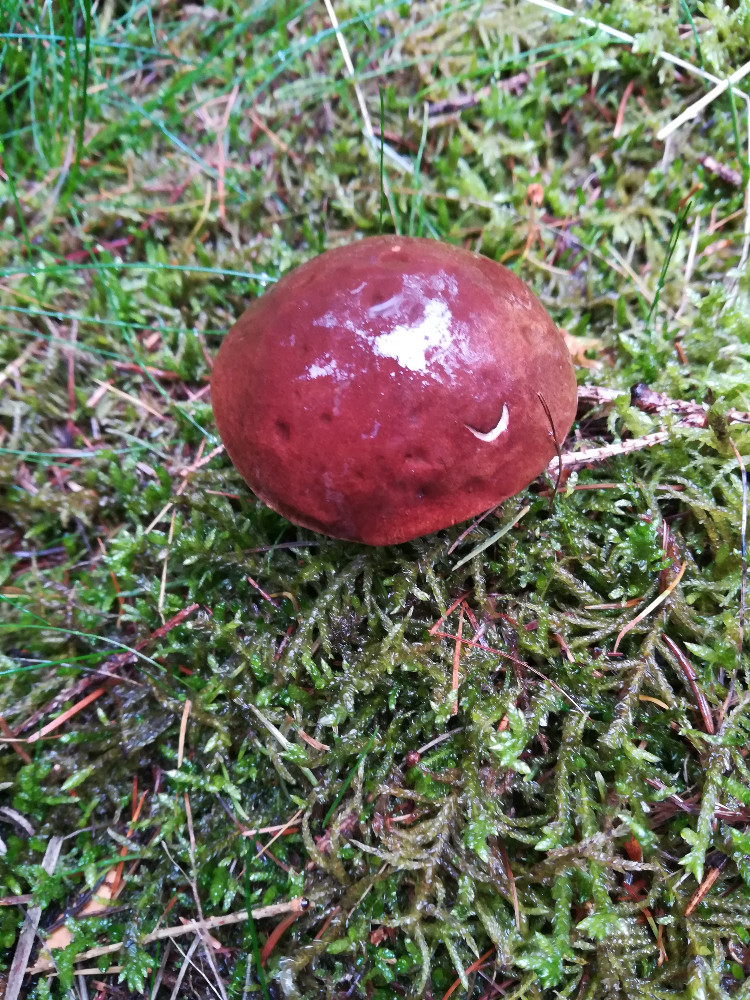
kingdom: Fungi
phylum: Basidiomycota
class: Agaricomycetes
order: Boletales
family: Boletaceae
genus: Imleria
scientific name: Imleria badia
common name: brunstokket rørhat
